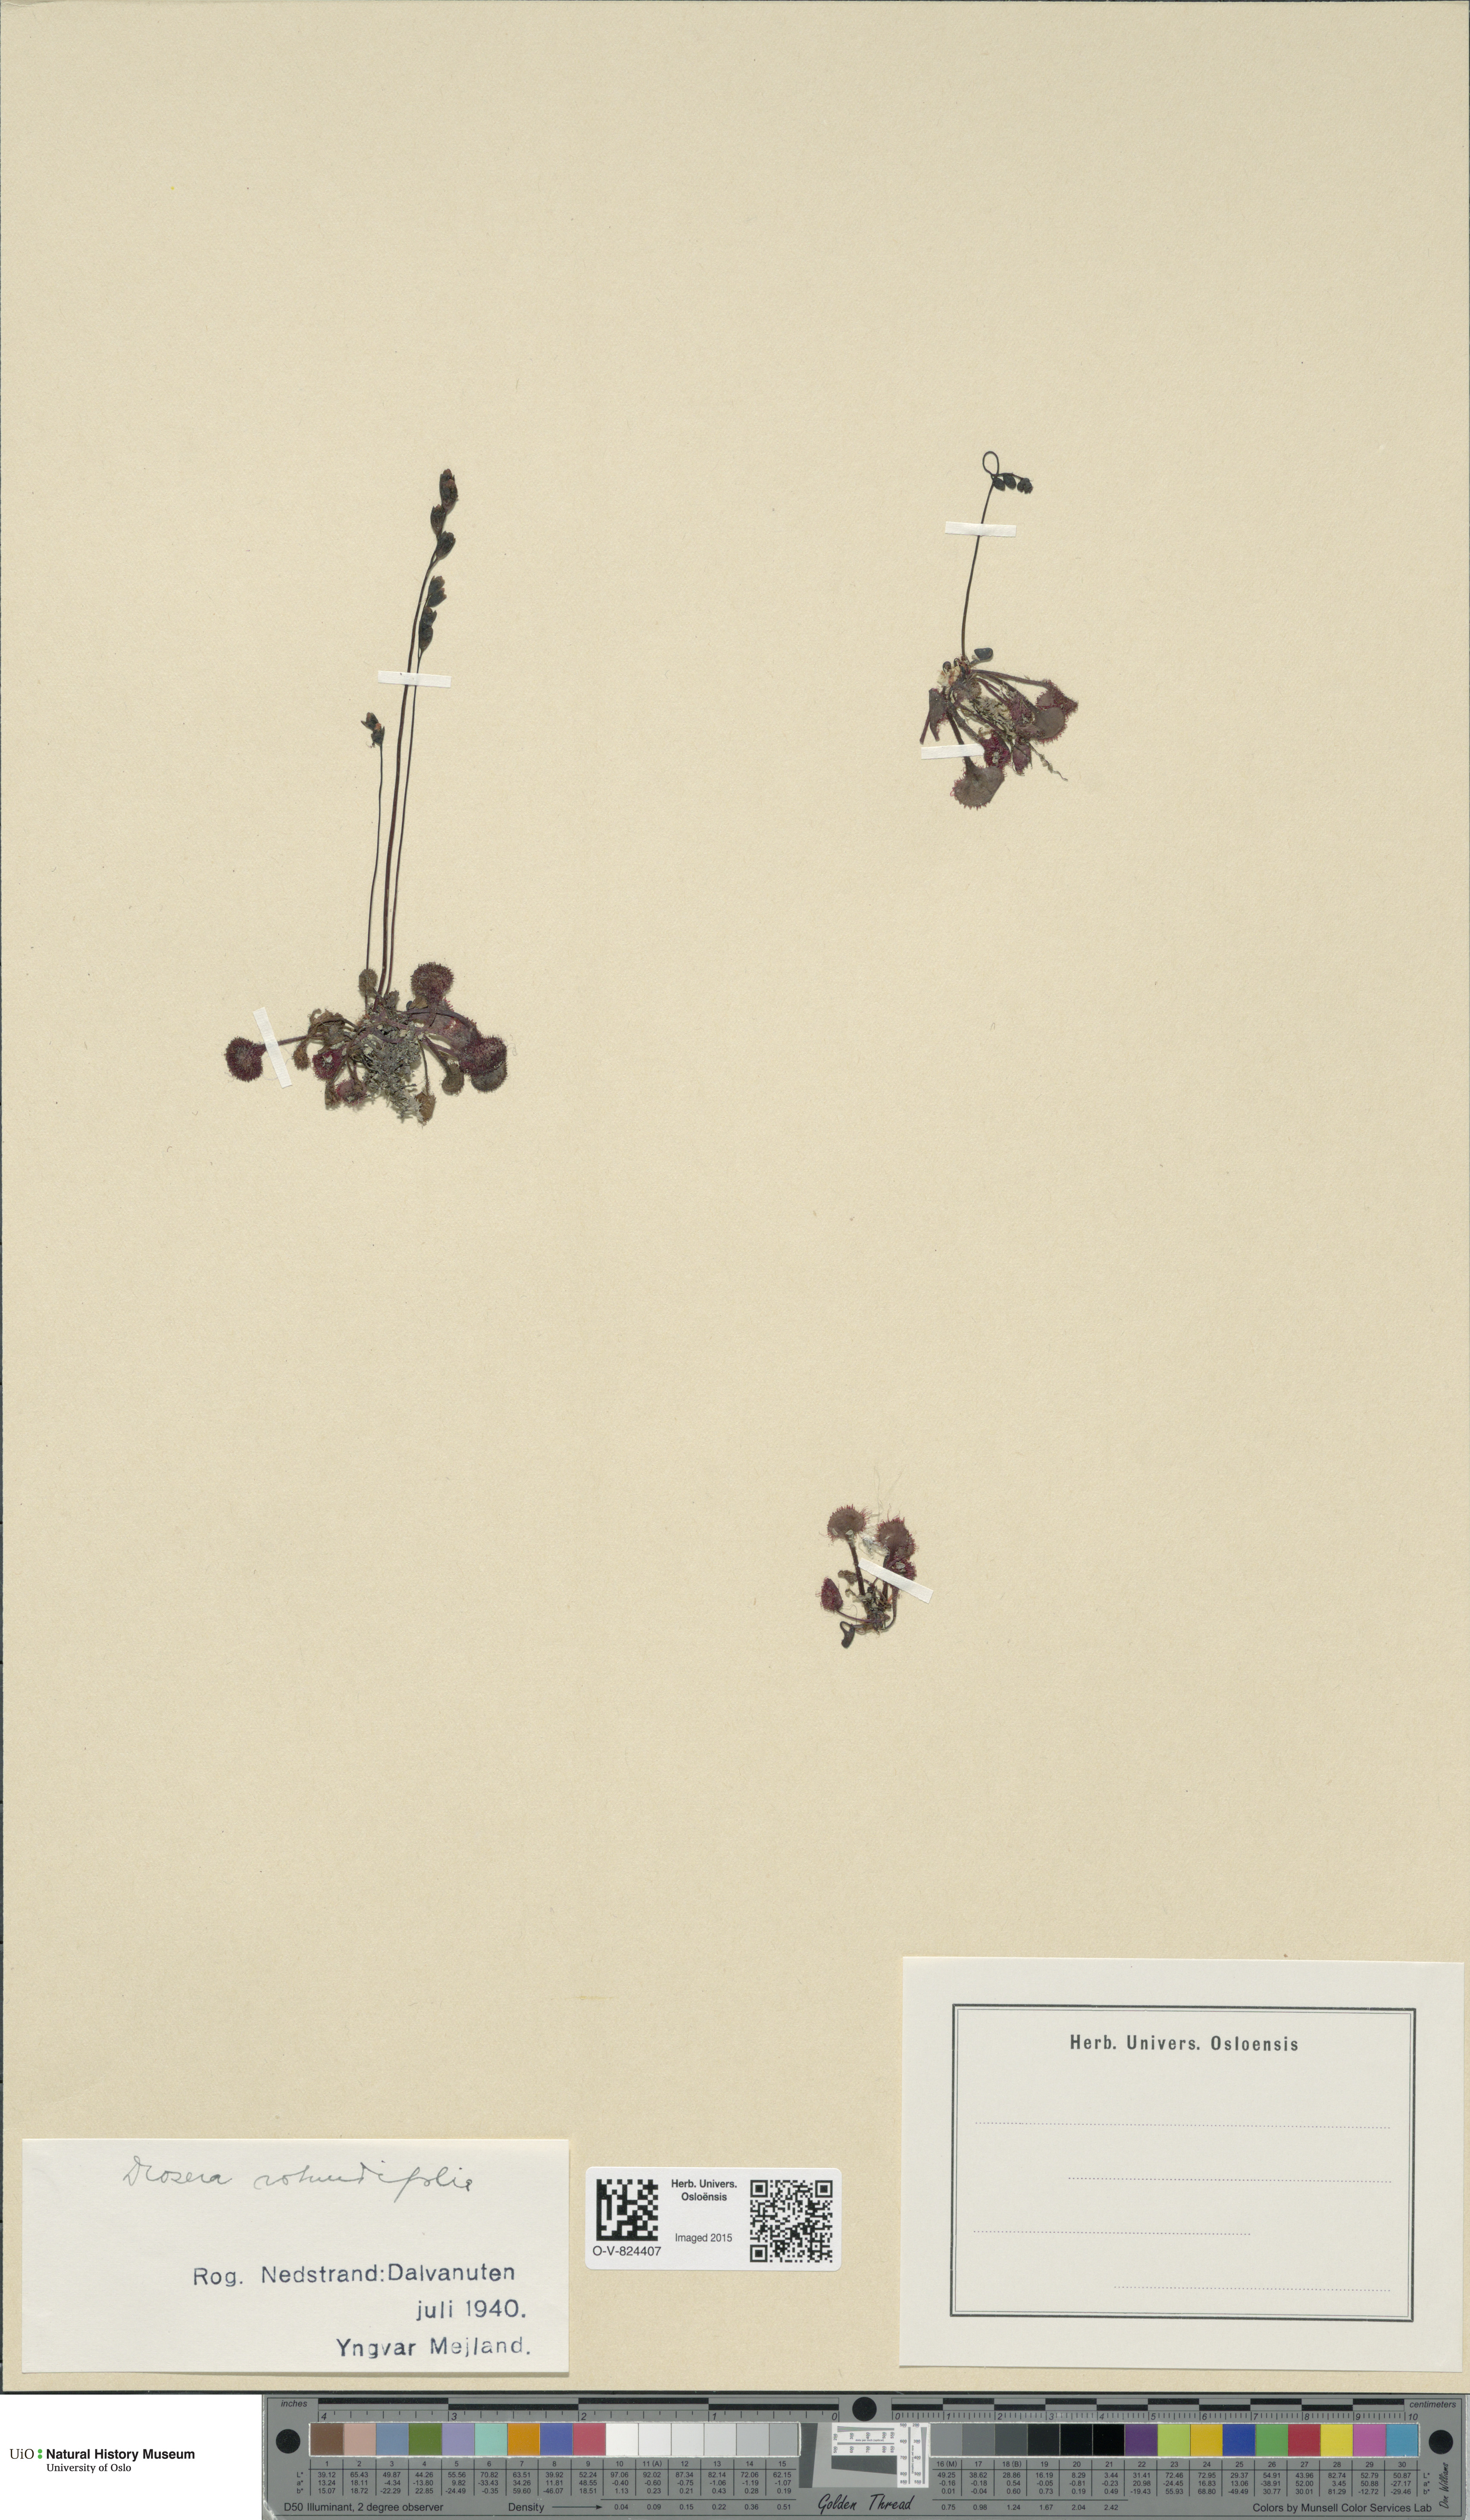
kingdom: Plantae
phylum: Tracheophyta
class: Magnoliopsida
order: Caryophyllales
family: Droseraceae
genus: Drosera
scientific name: Drosera rotundifolia
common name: Round-leaved sundew
